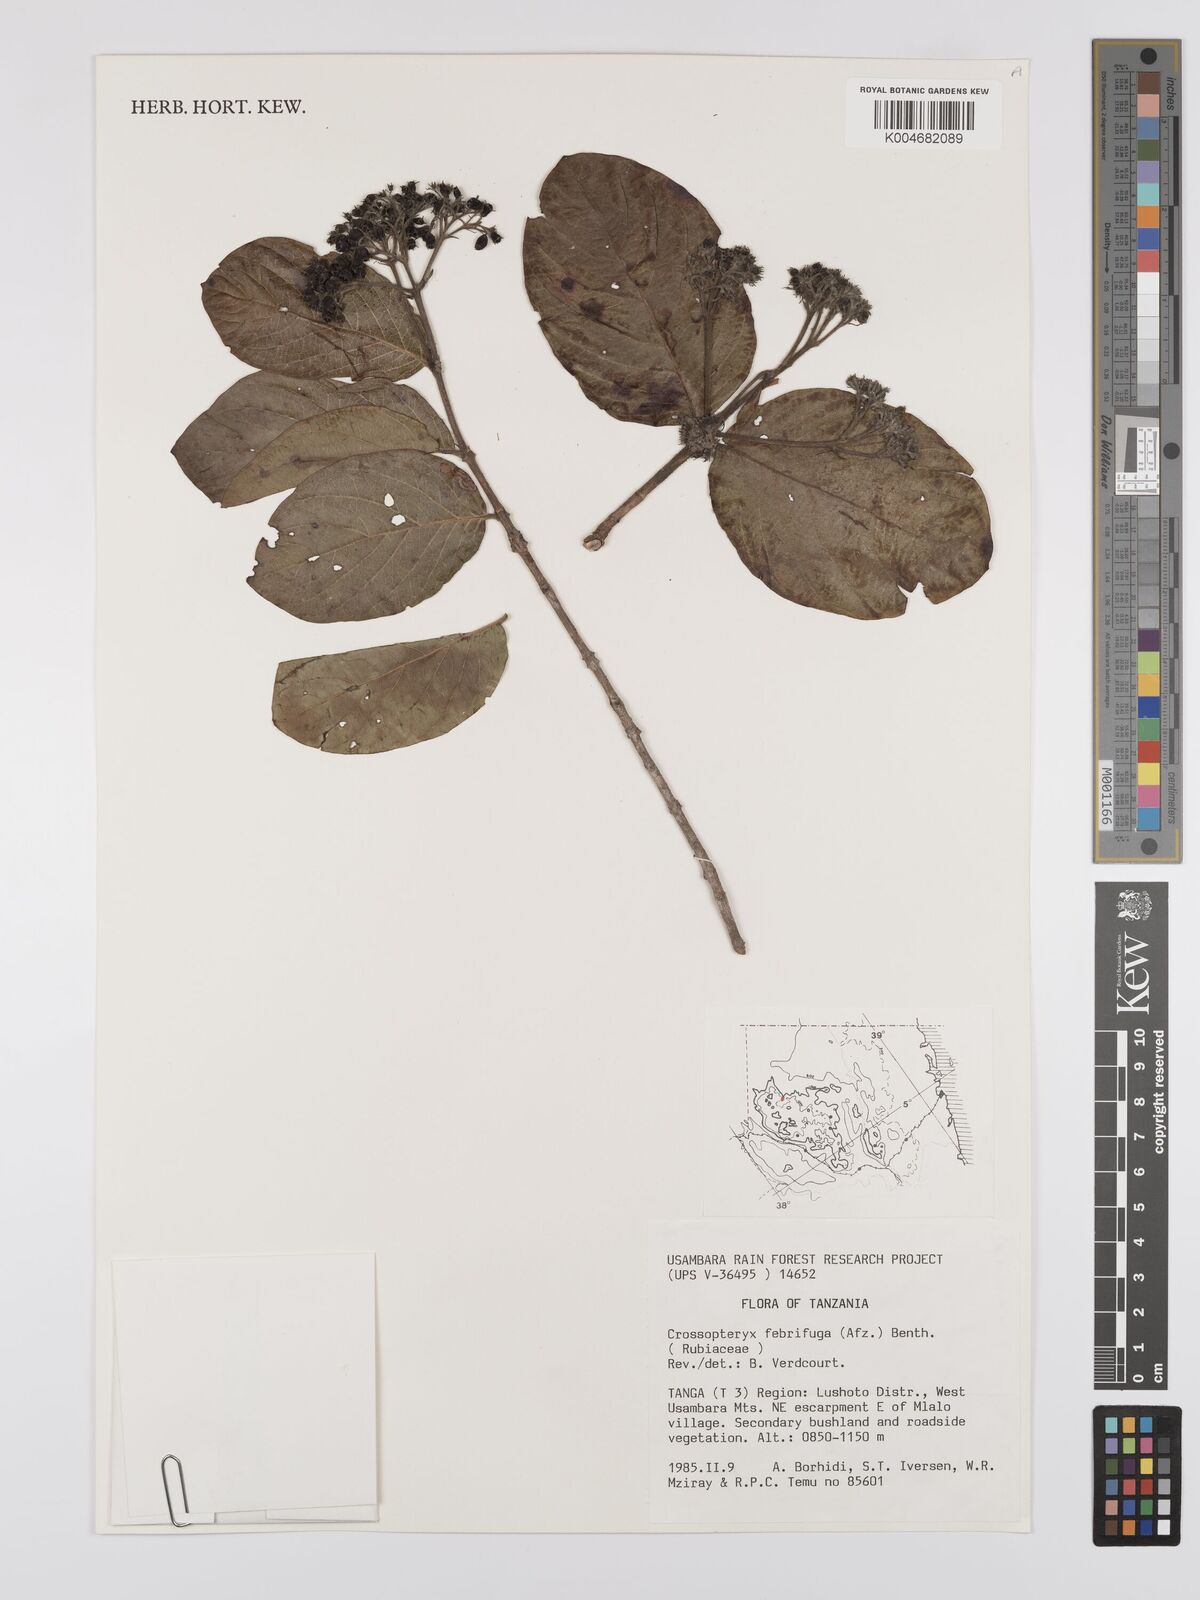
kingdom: Plantae
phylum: Tracheophyta
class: Magnoliopsida
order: Gentianales
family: Rubiaceae
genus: Crossopteryx
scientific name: Crossopteryx febrifuga
